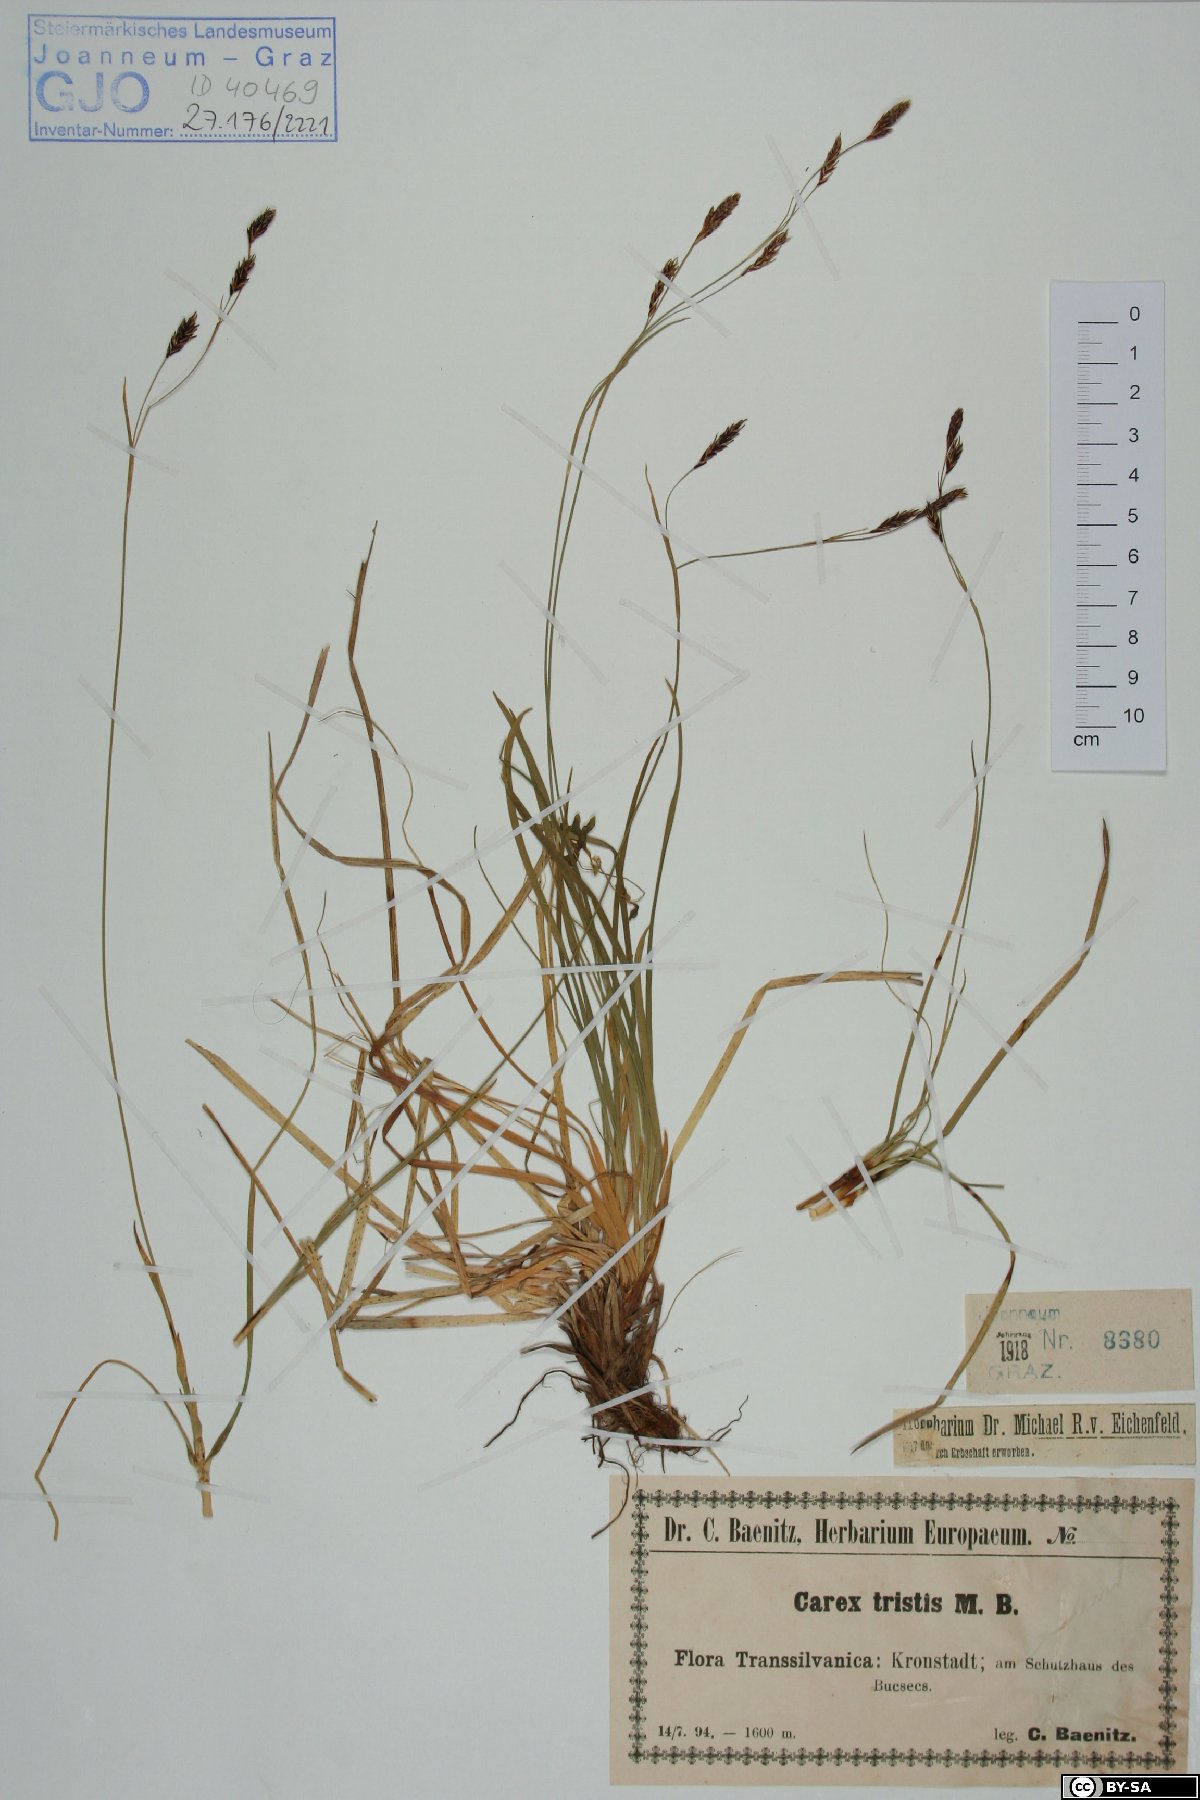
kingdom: Plantae
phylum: Tracheophyta
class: Liliopsida
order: Poales
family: Cyperaceae
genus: Carex
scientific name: Carex tristis
